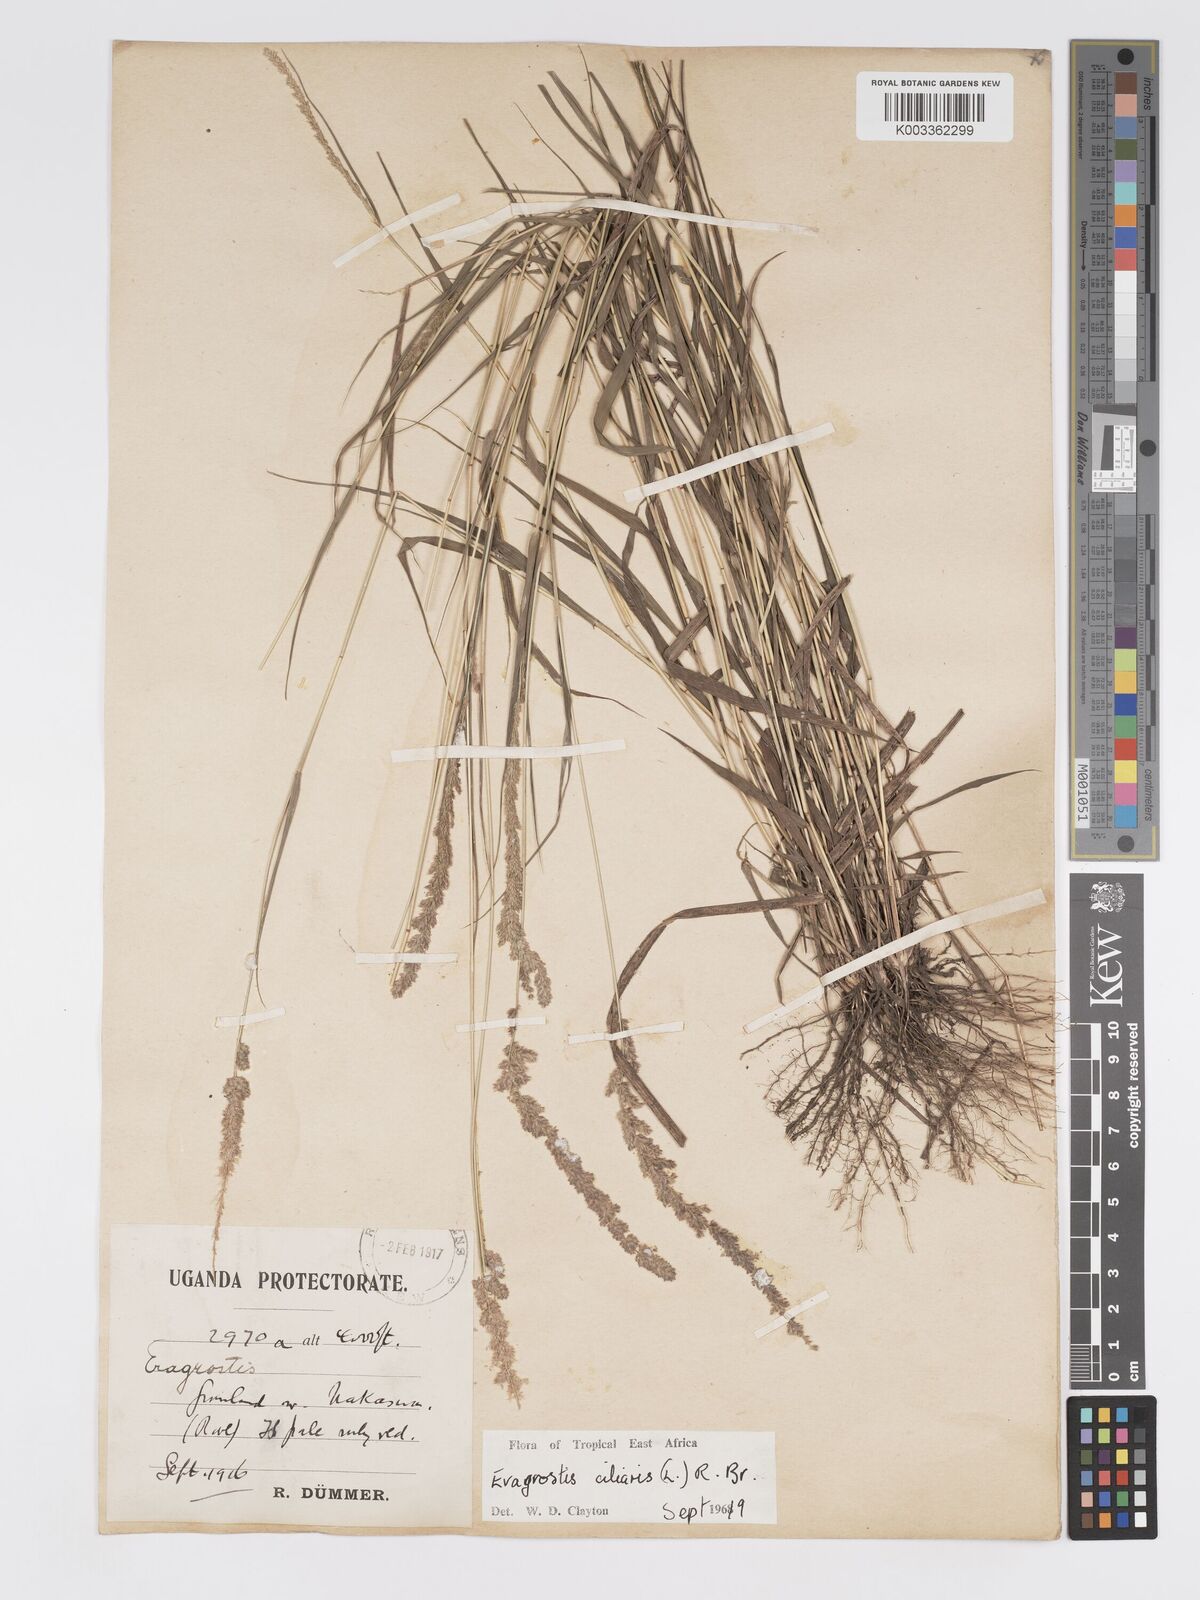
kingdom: Plantae
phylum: Tracheophyta
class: Liliopsida
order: Poales
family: Poaceae
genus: Eragrostis
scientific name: Eragrostis ciliaris
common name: Gophertail lovegrass
